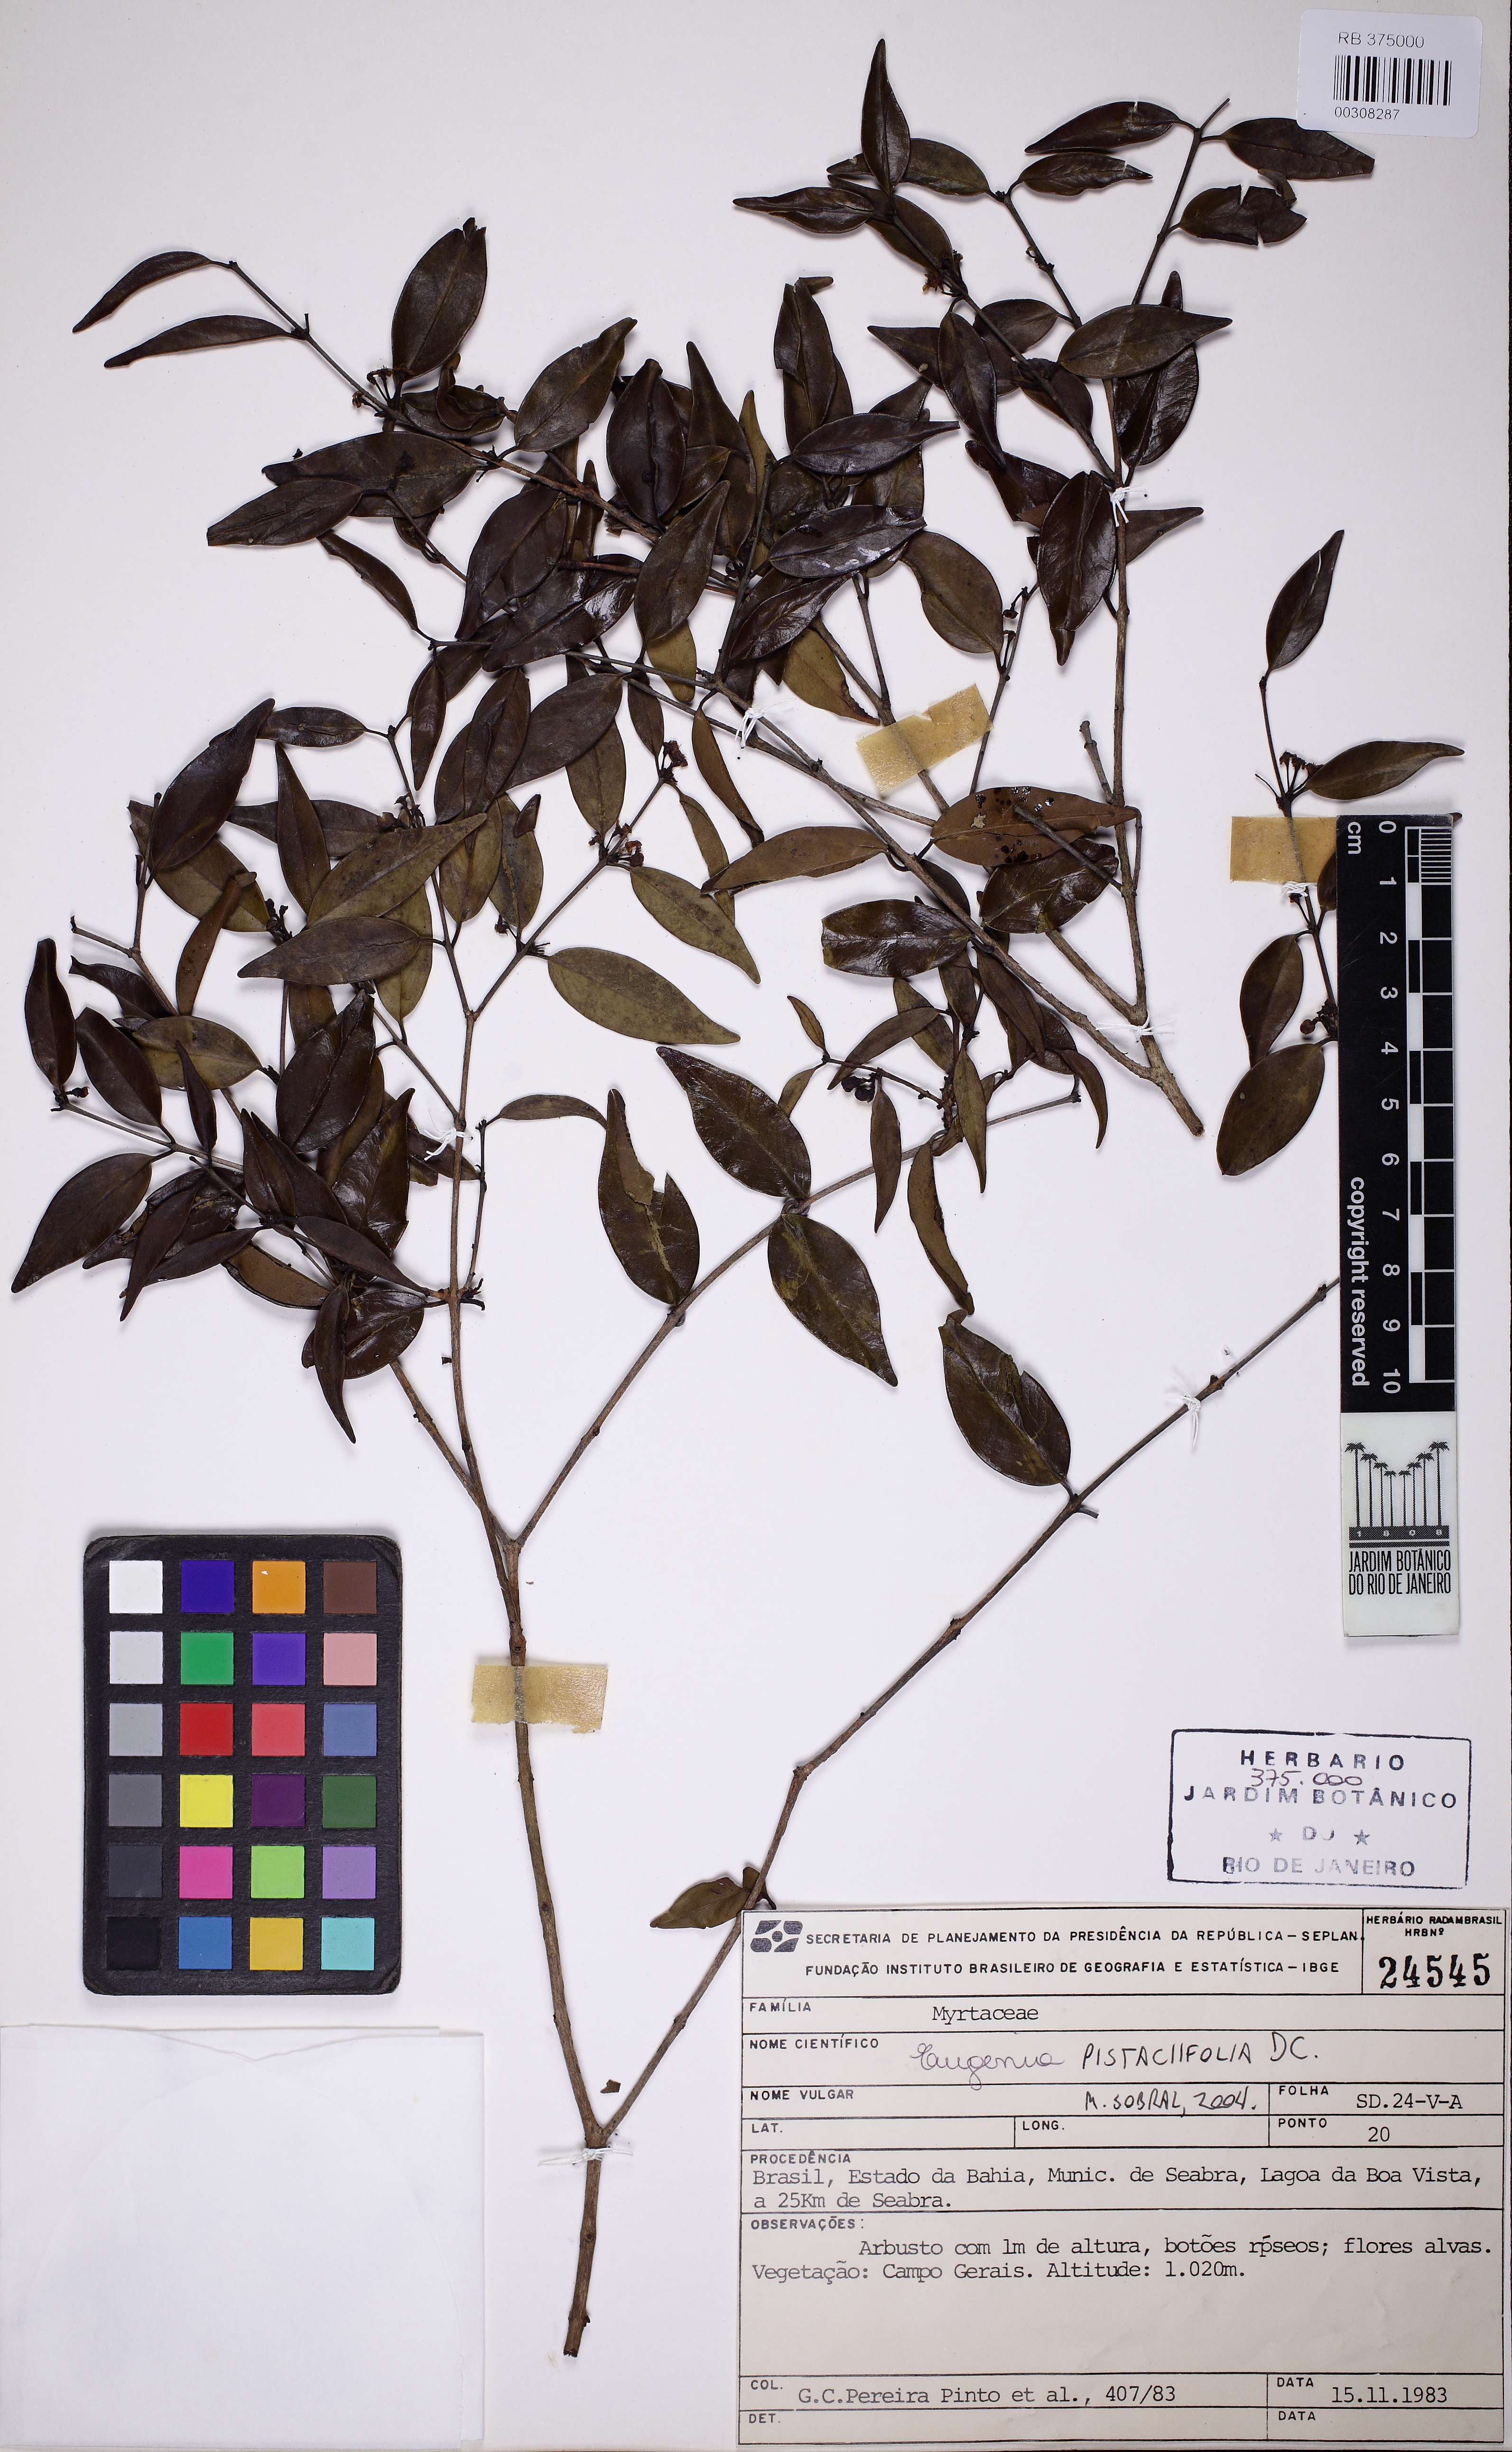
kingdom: Plantae
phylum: Tracheophyta
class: Magnoliopsida
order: Myrtales
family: Myrtaceae
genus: Eugenia
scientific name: Eugenia pistaciifolia
